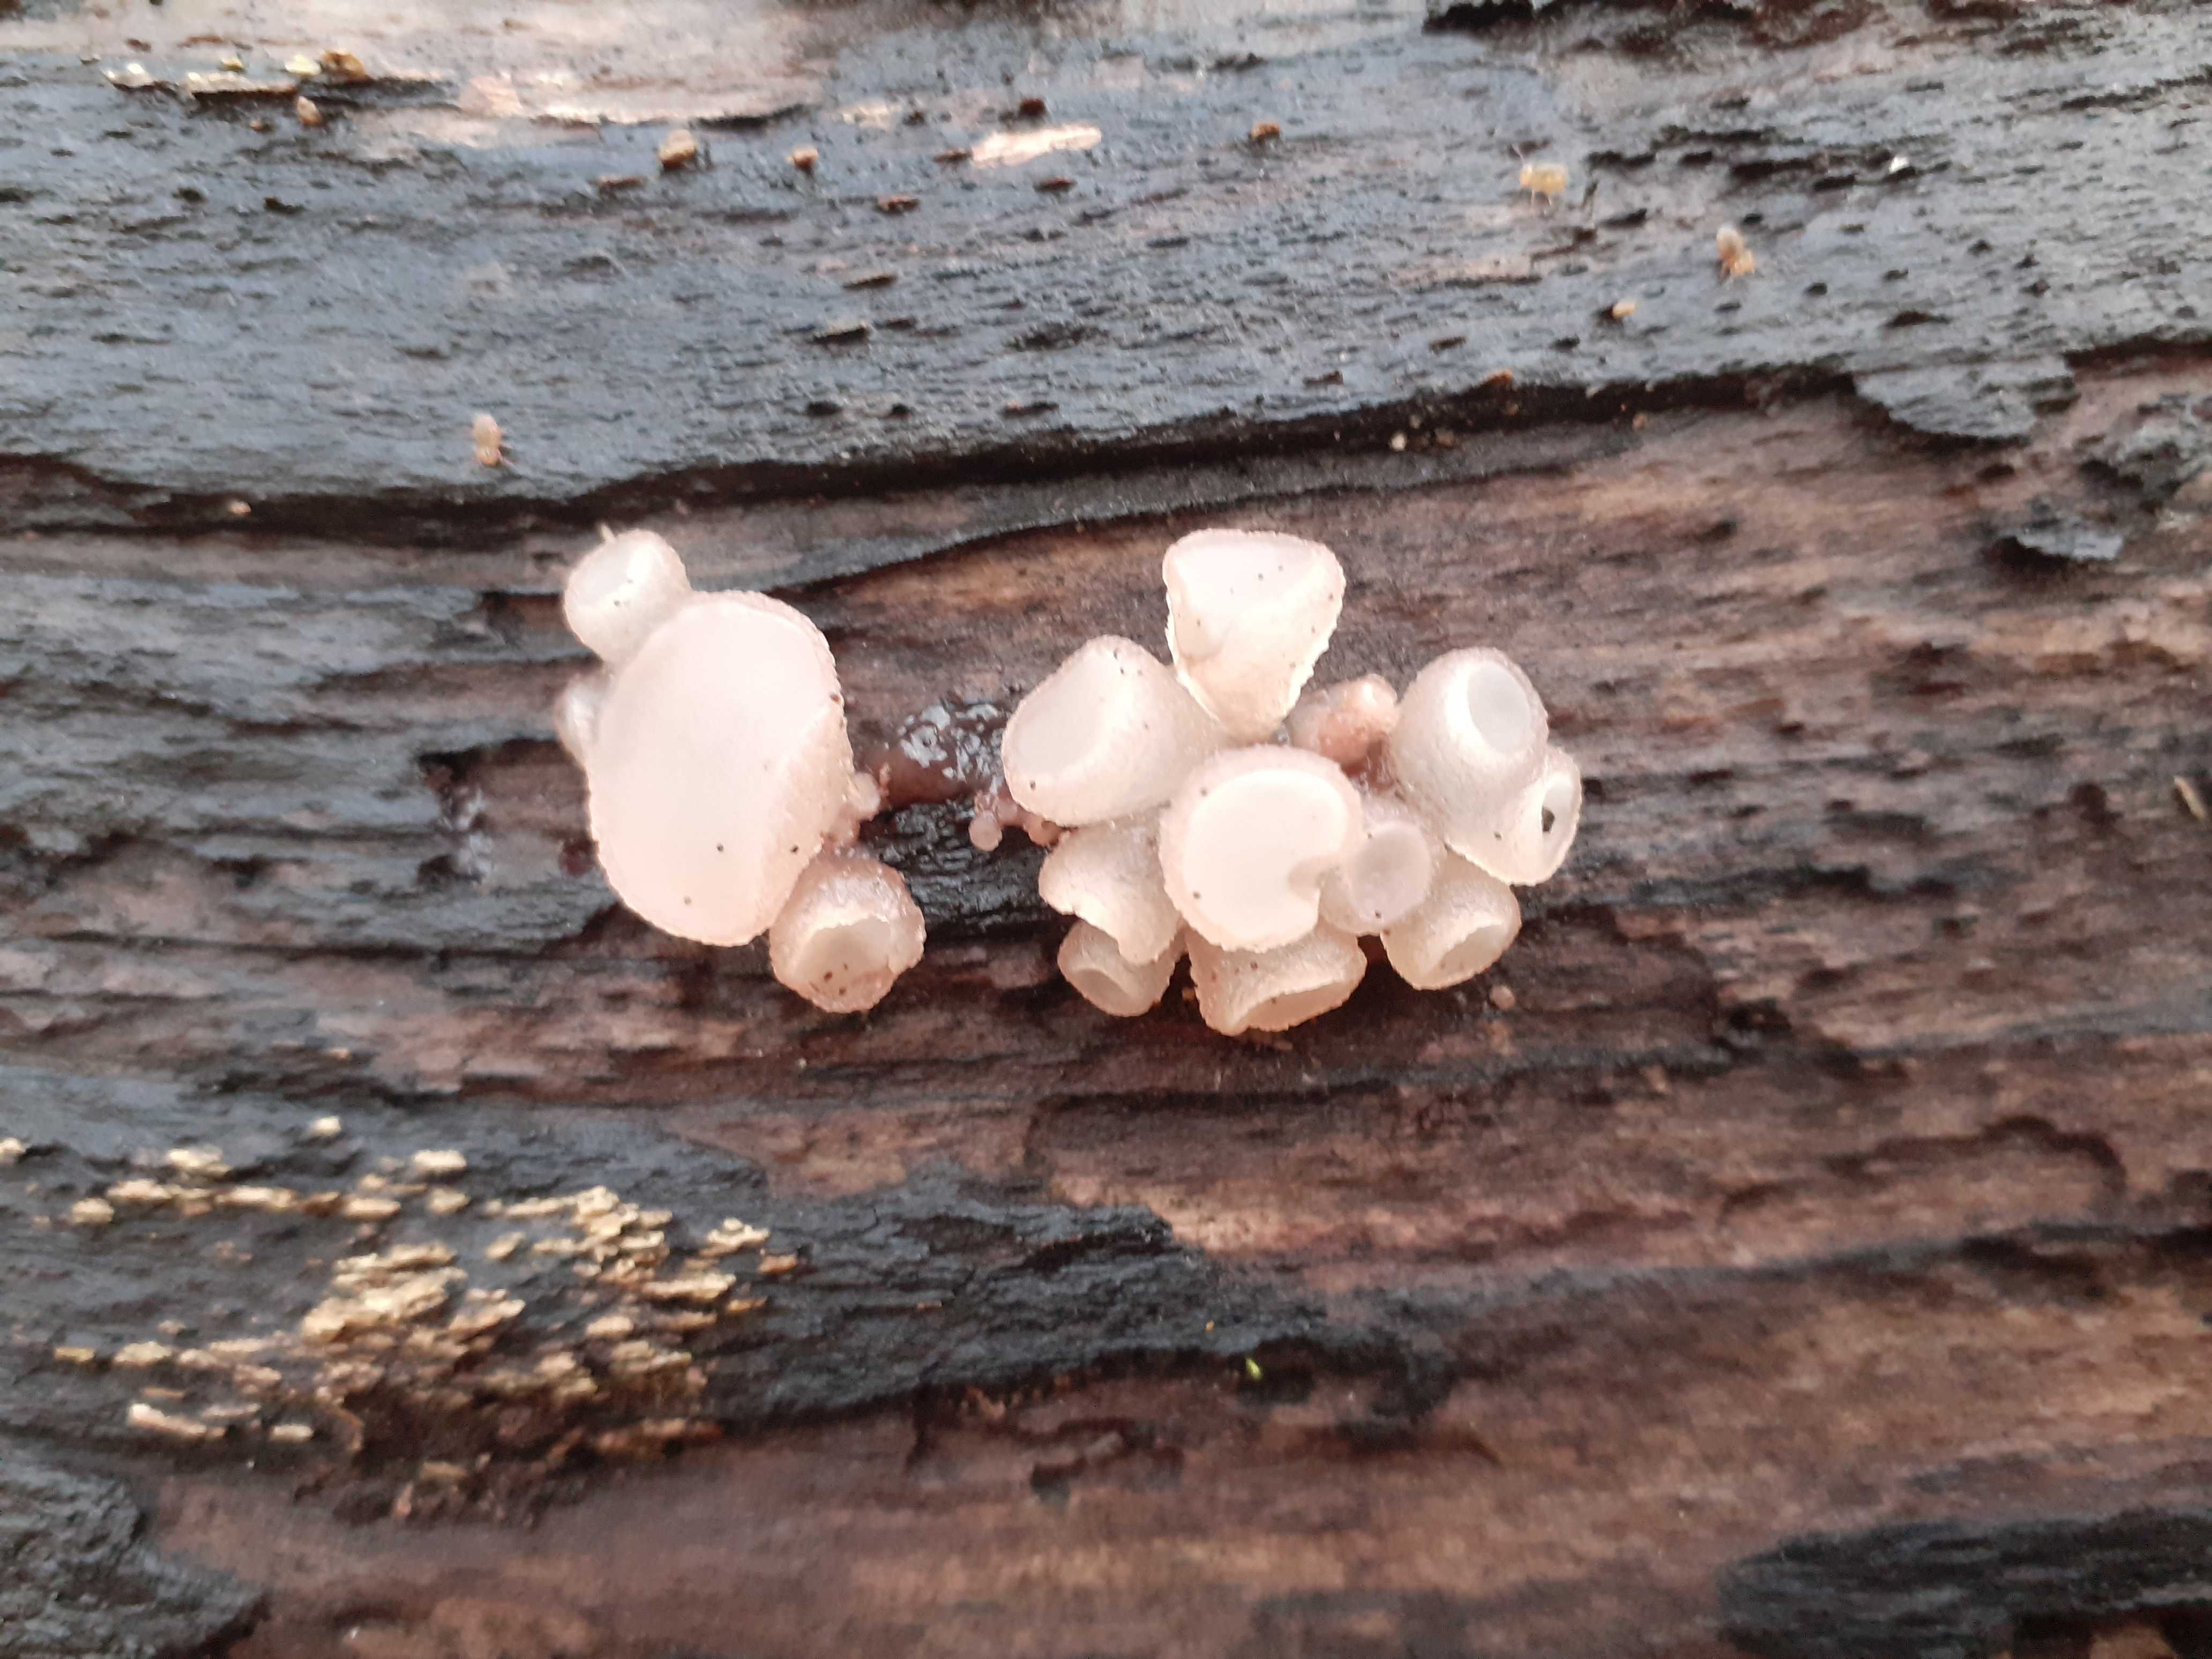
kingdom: Fungi
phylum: Ascomycota
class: Leotiomycetes
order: Helotiales
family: Gelatinodiscaceae
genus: Neobulgaria
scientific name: Neobulgaria pura
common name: bleg bævreskive
